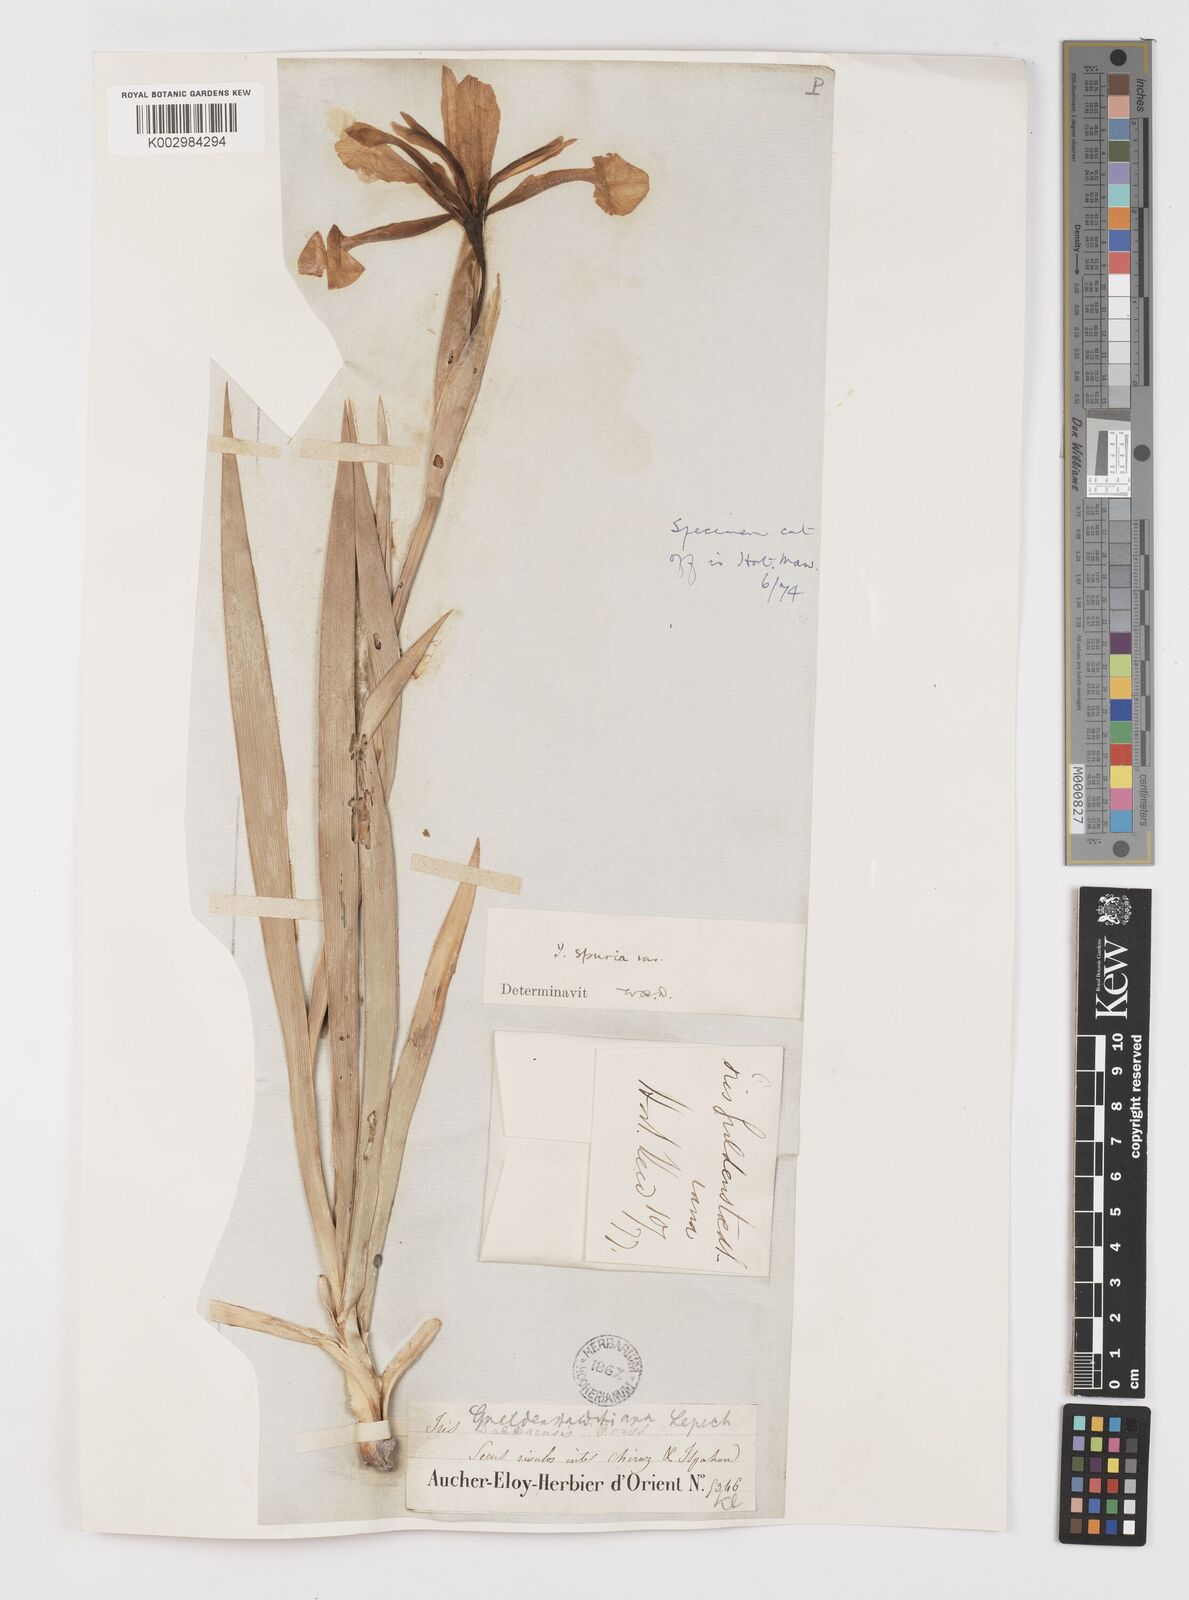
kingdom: Plantae
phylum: Tracheophyta
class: Liliopsida
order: Asparagales
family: Iridaceae
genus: Iris
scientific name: Iris spuria
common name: Blue iris
